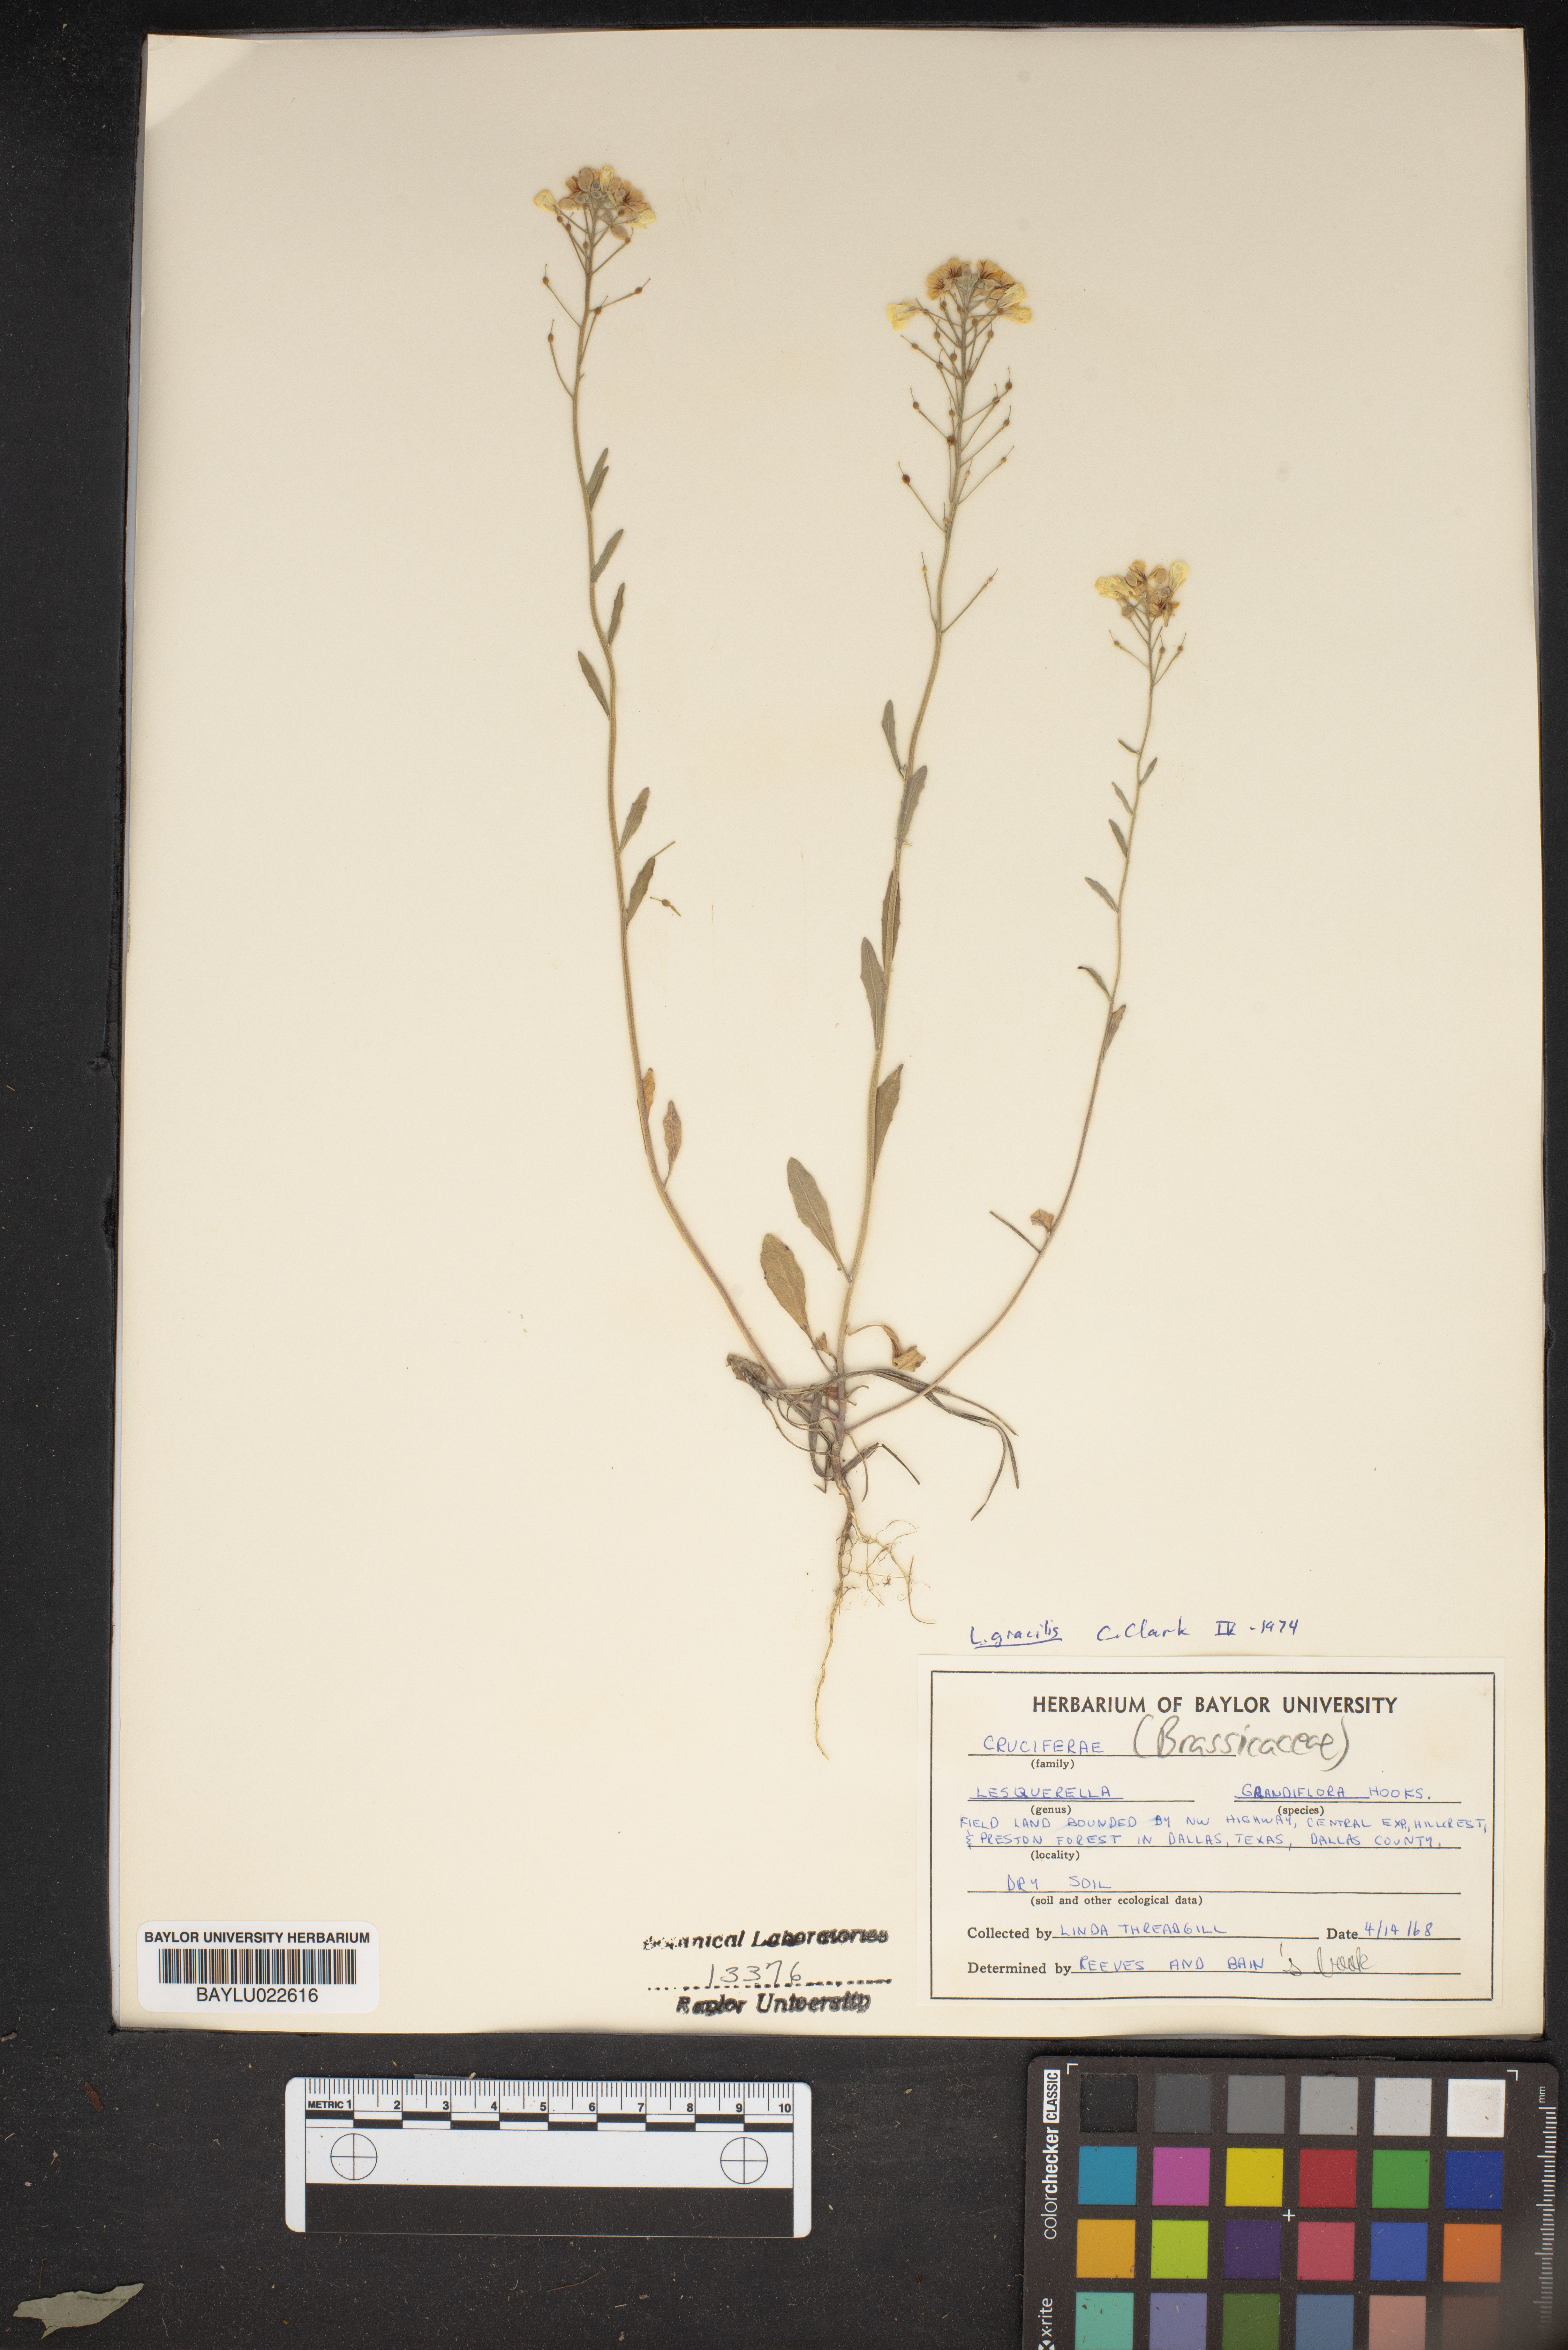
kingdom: Plantae
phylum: Tracheophyta
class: Magnoliopsida
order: Brassicales
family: Brassicaceae
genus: Paysonia
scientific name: Paysonia grandiflora
